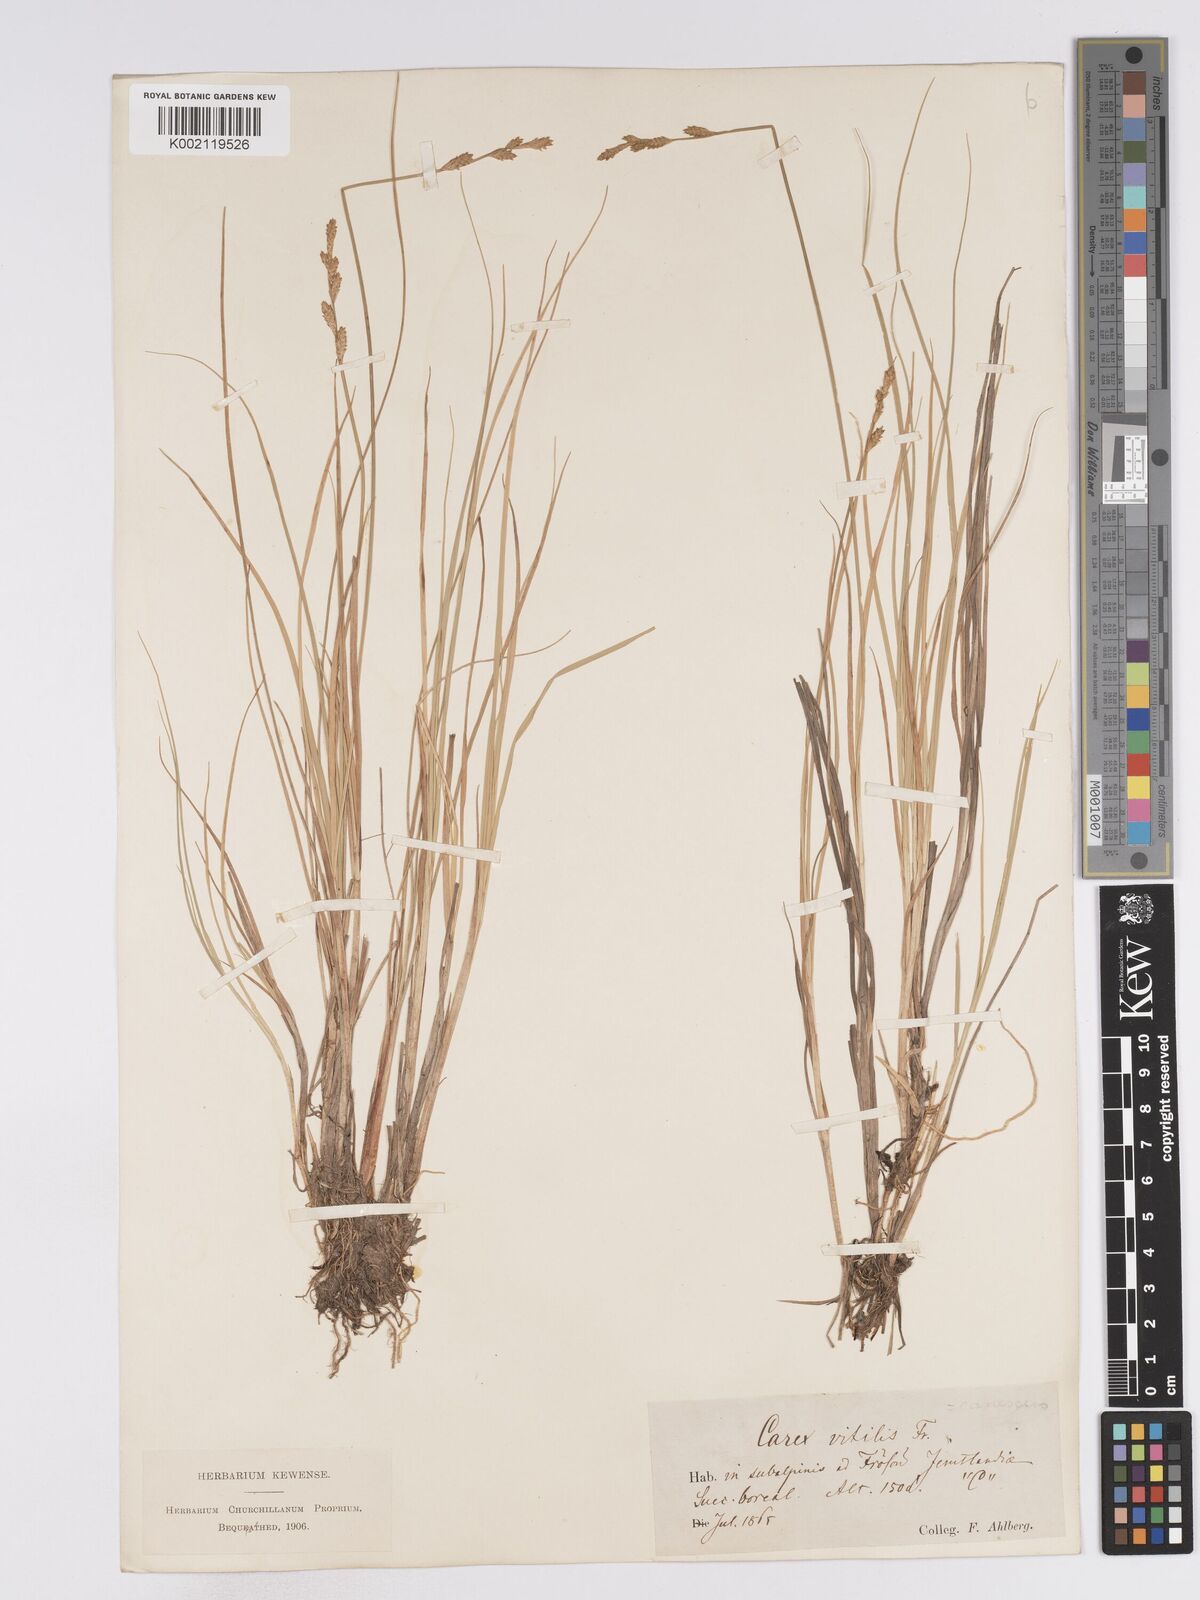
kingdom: Plantae
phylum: Tracheophyta
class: Liliopsida
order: Poales
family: Cyperaceae
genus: Carex
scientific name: Carex mackenziei
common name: Mackenzie's sedge
